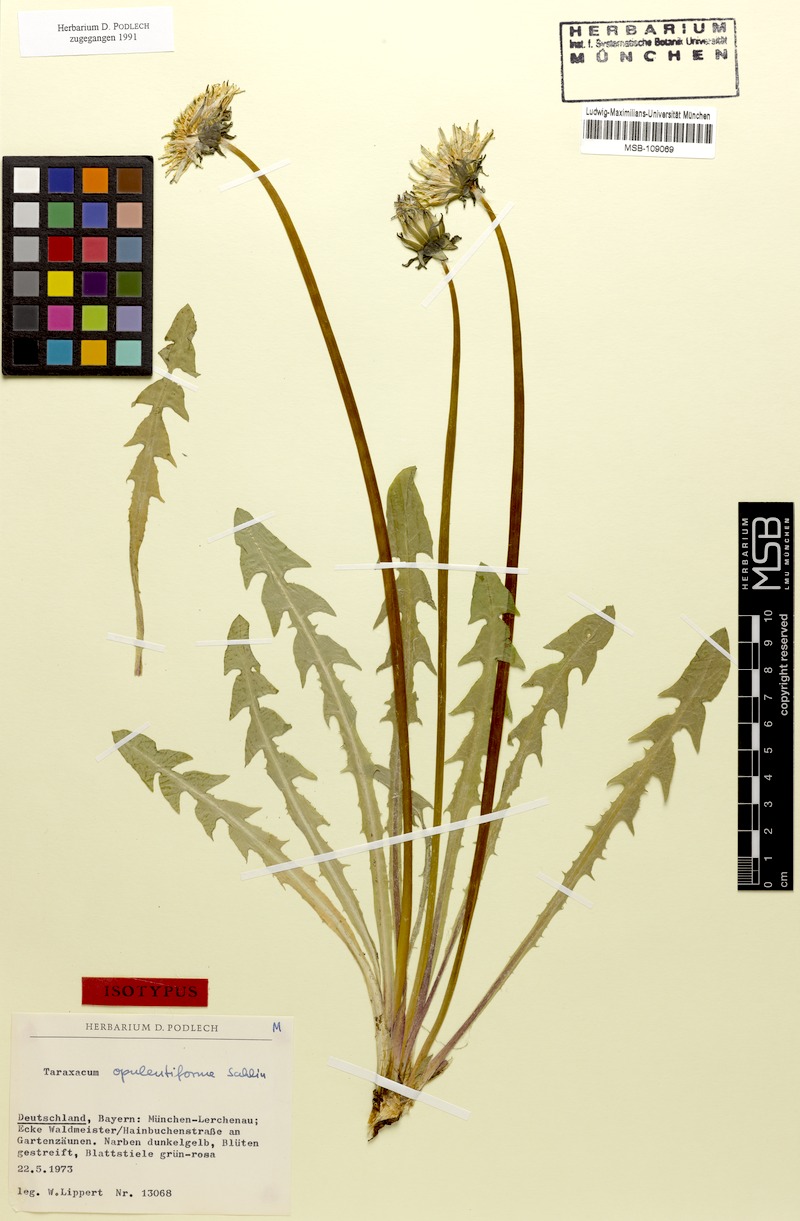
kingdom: Plantae
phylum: Tracheophyta
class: Magnoliopsida
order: Asterales
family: Asteraceae
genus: Taraxacum
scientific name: Taraxacum opulentiforme
